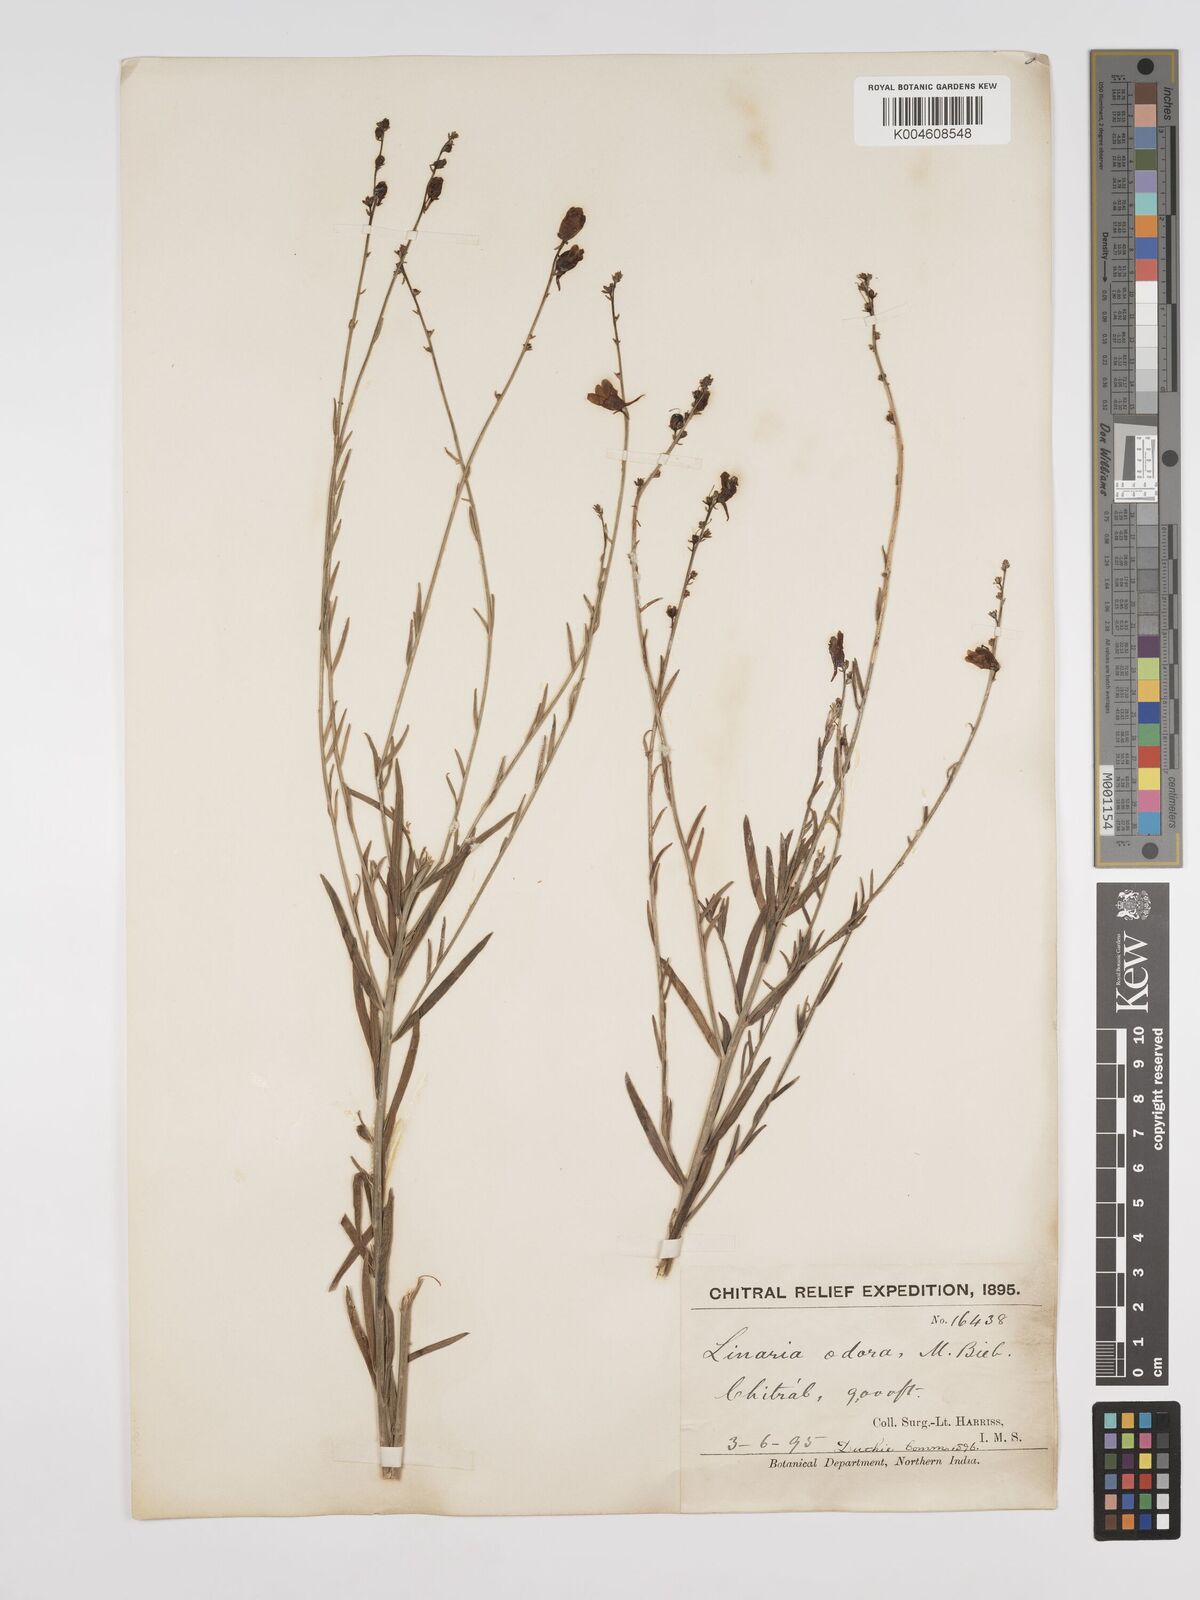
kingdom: Plantae
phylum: Tracheophyta
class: Magnoliopsida
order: Lamiales
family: Plantaginaceae
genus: Kickxia
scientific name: Kickxia
